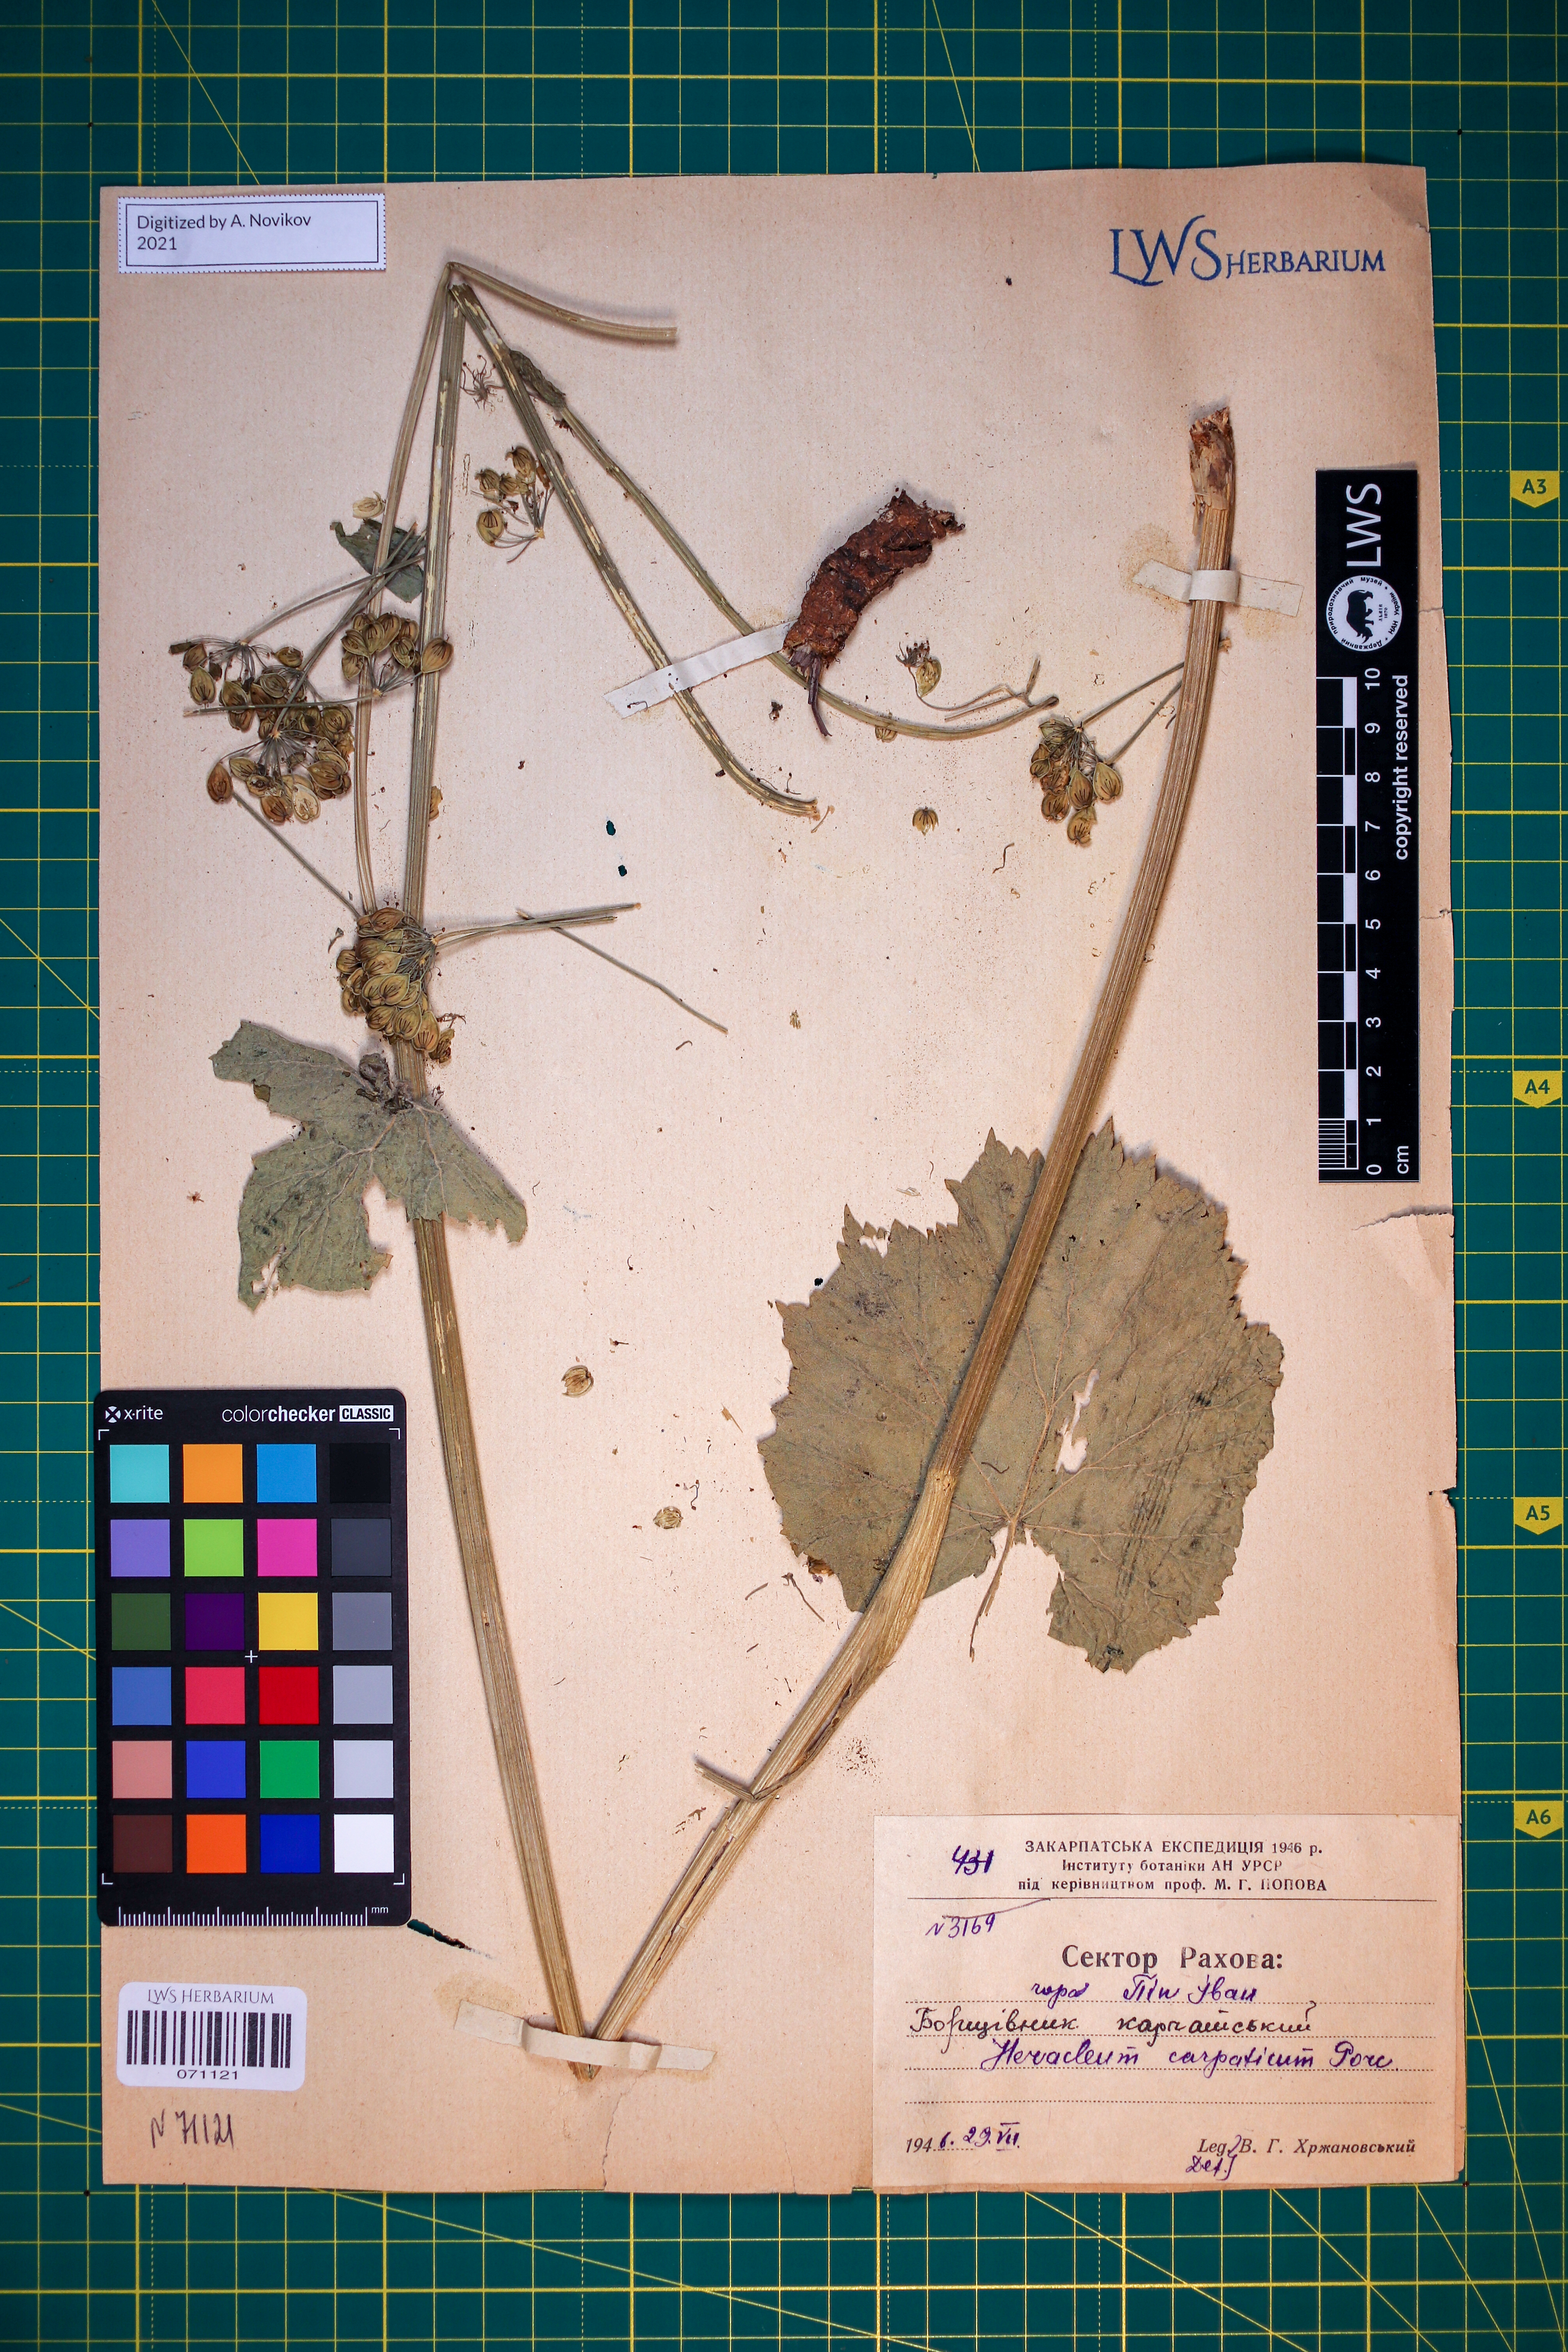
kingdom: Plantae
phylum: Tracheophyta
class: Magnoliopsida
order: Apiales
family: Apiaceae
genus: Heracleum
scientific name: Heracleum carpaticum
